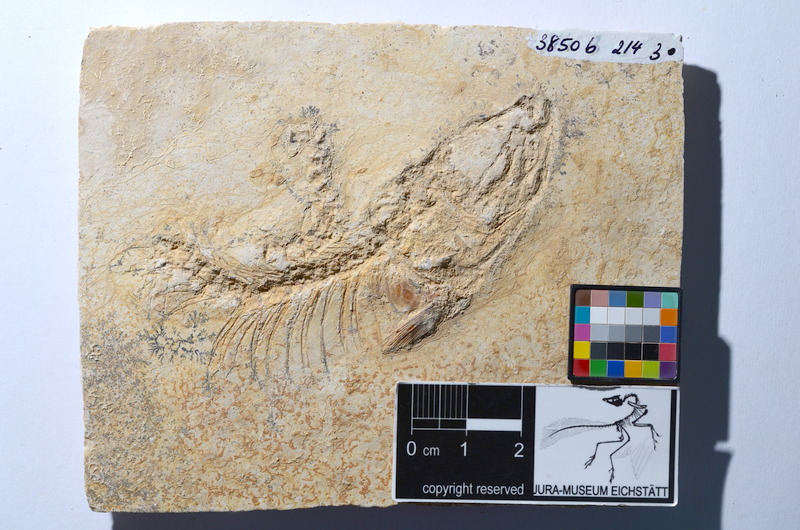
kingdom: Animalia
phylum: Chordata
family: Ascalaboidae
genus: Tharsis
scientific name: Tharsis dubius
